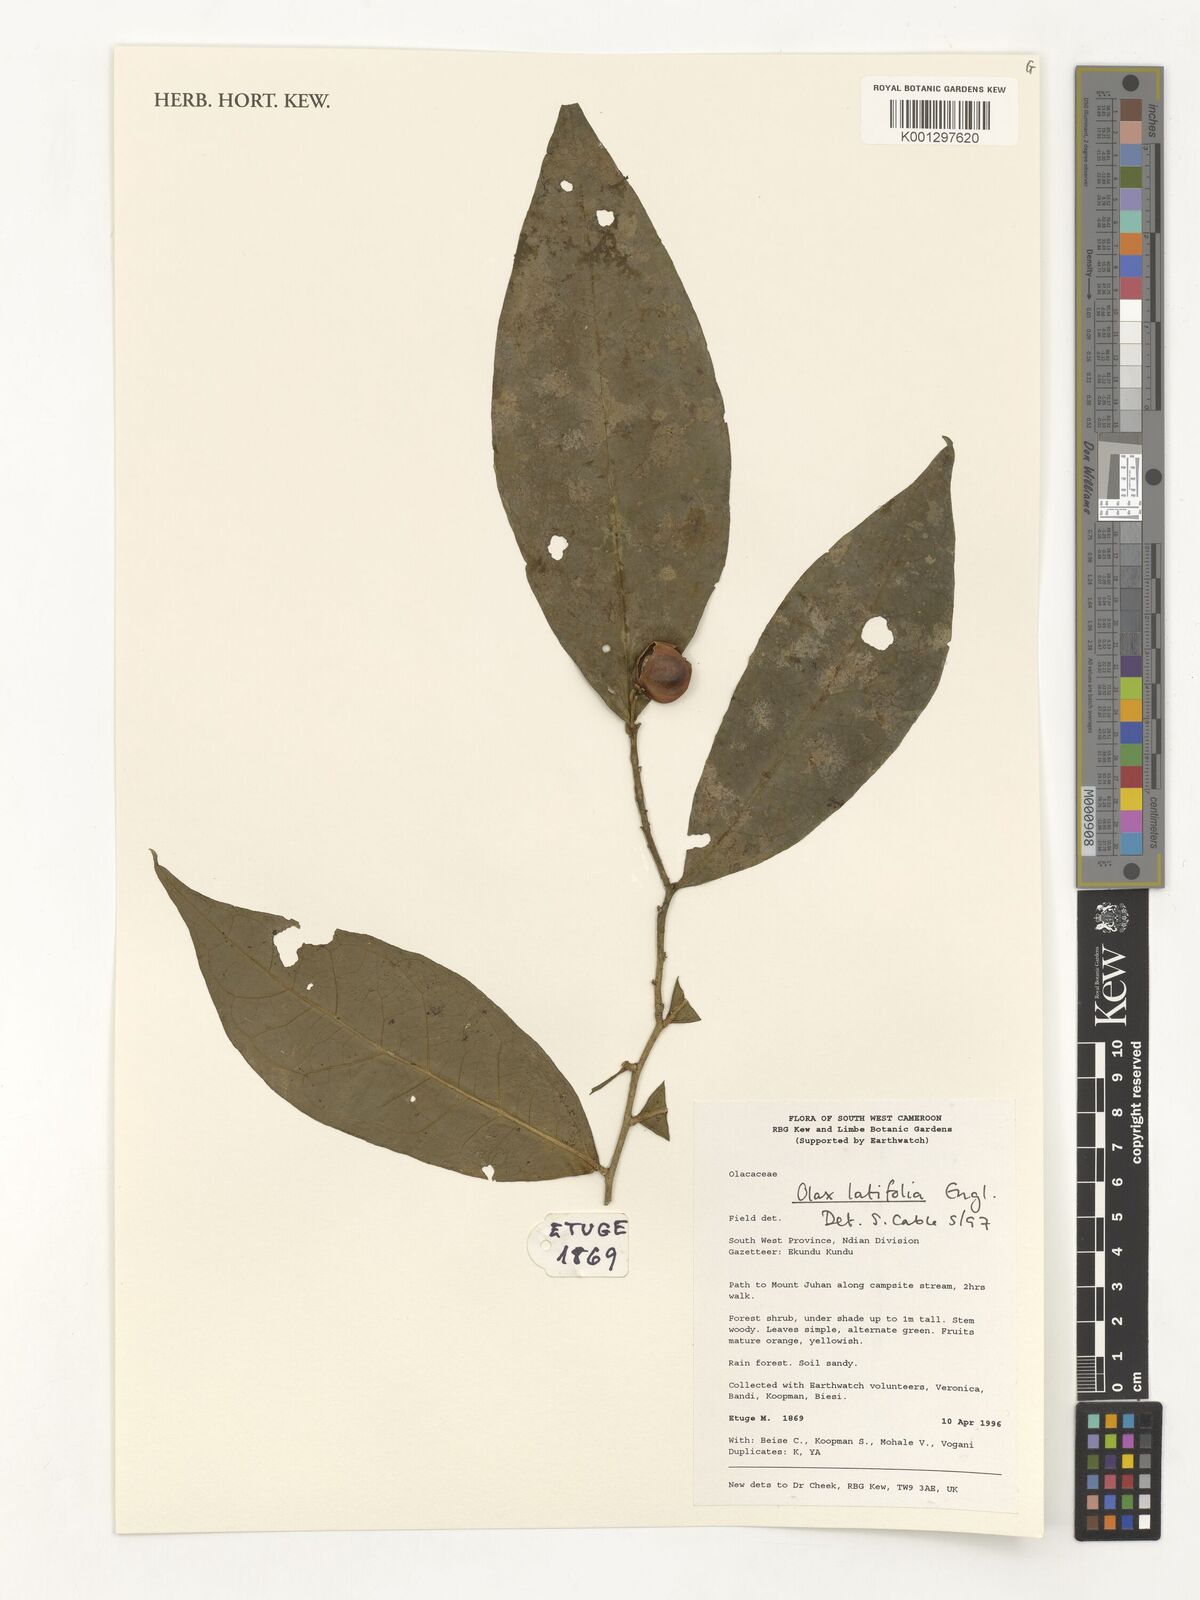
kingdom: Plantae
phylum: Tracheophyta
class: Magnoliopsida
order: Santalales
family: Olacaceae
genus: Olax
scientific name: Olax latifolia
